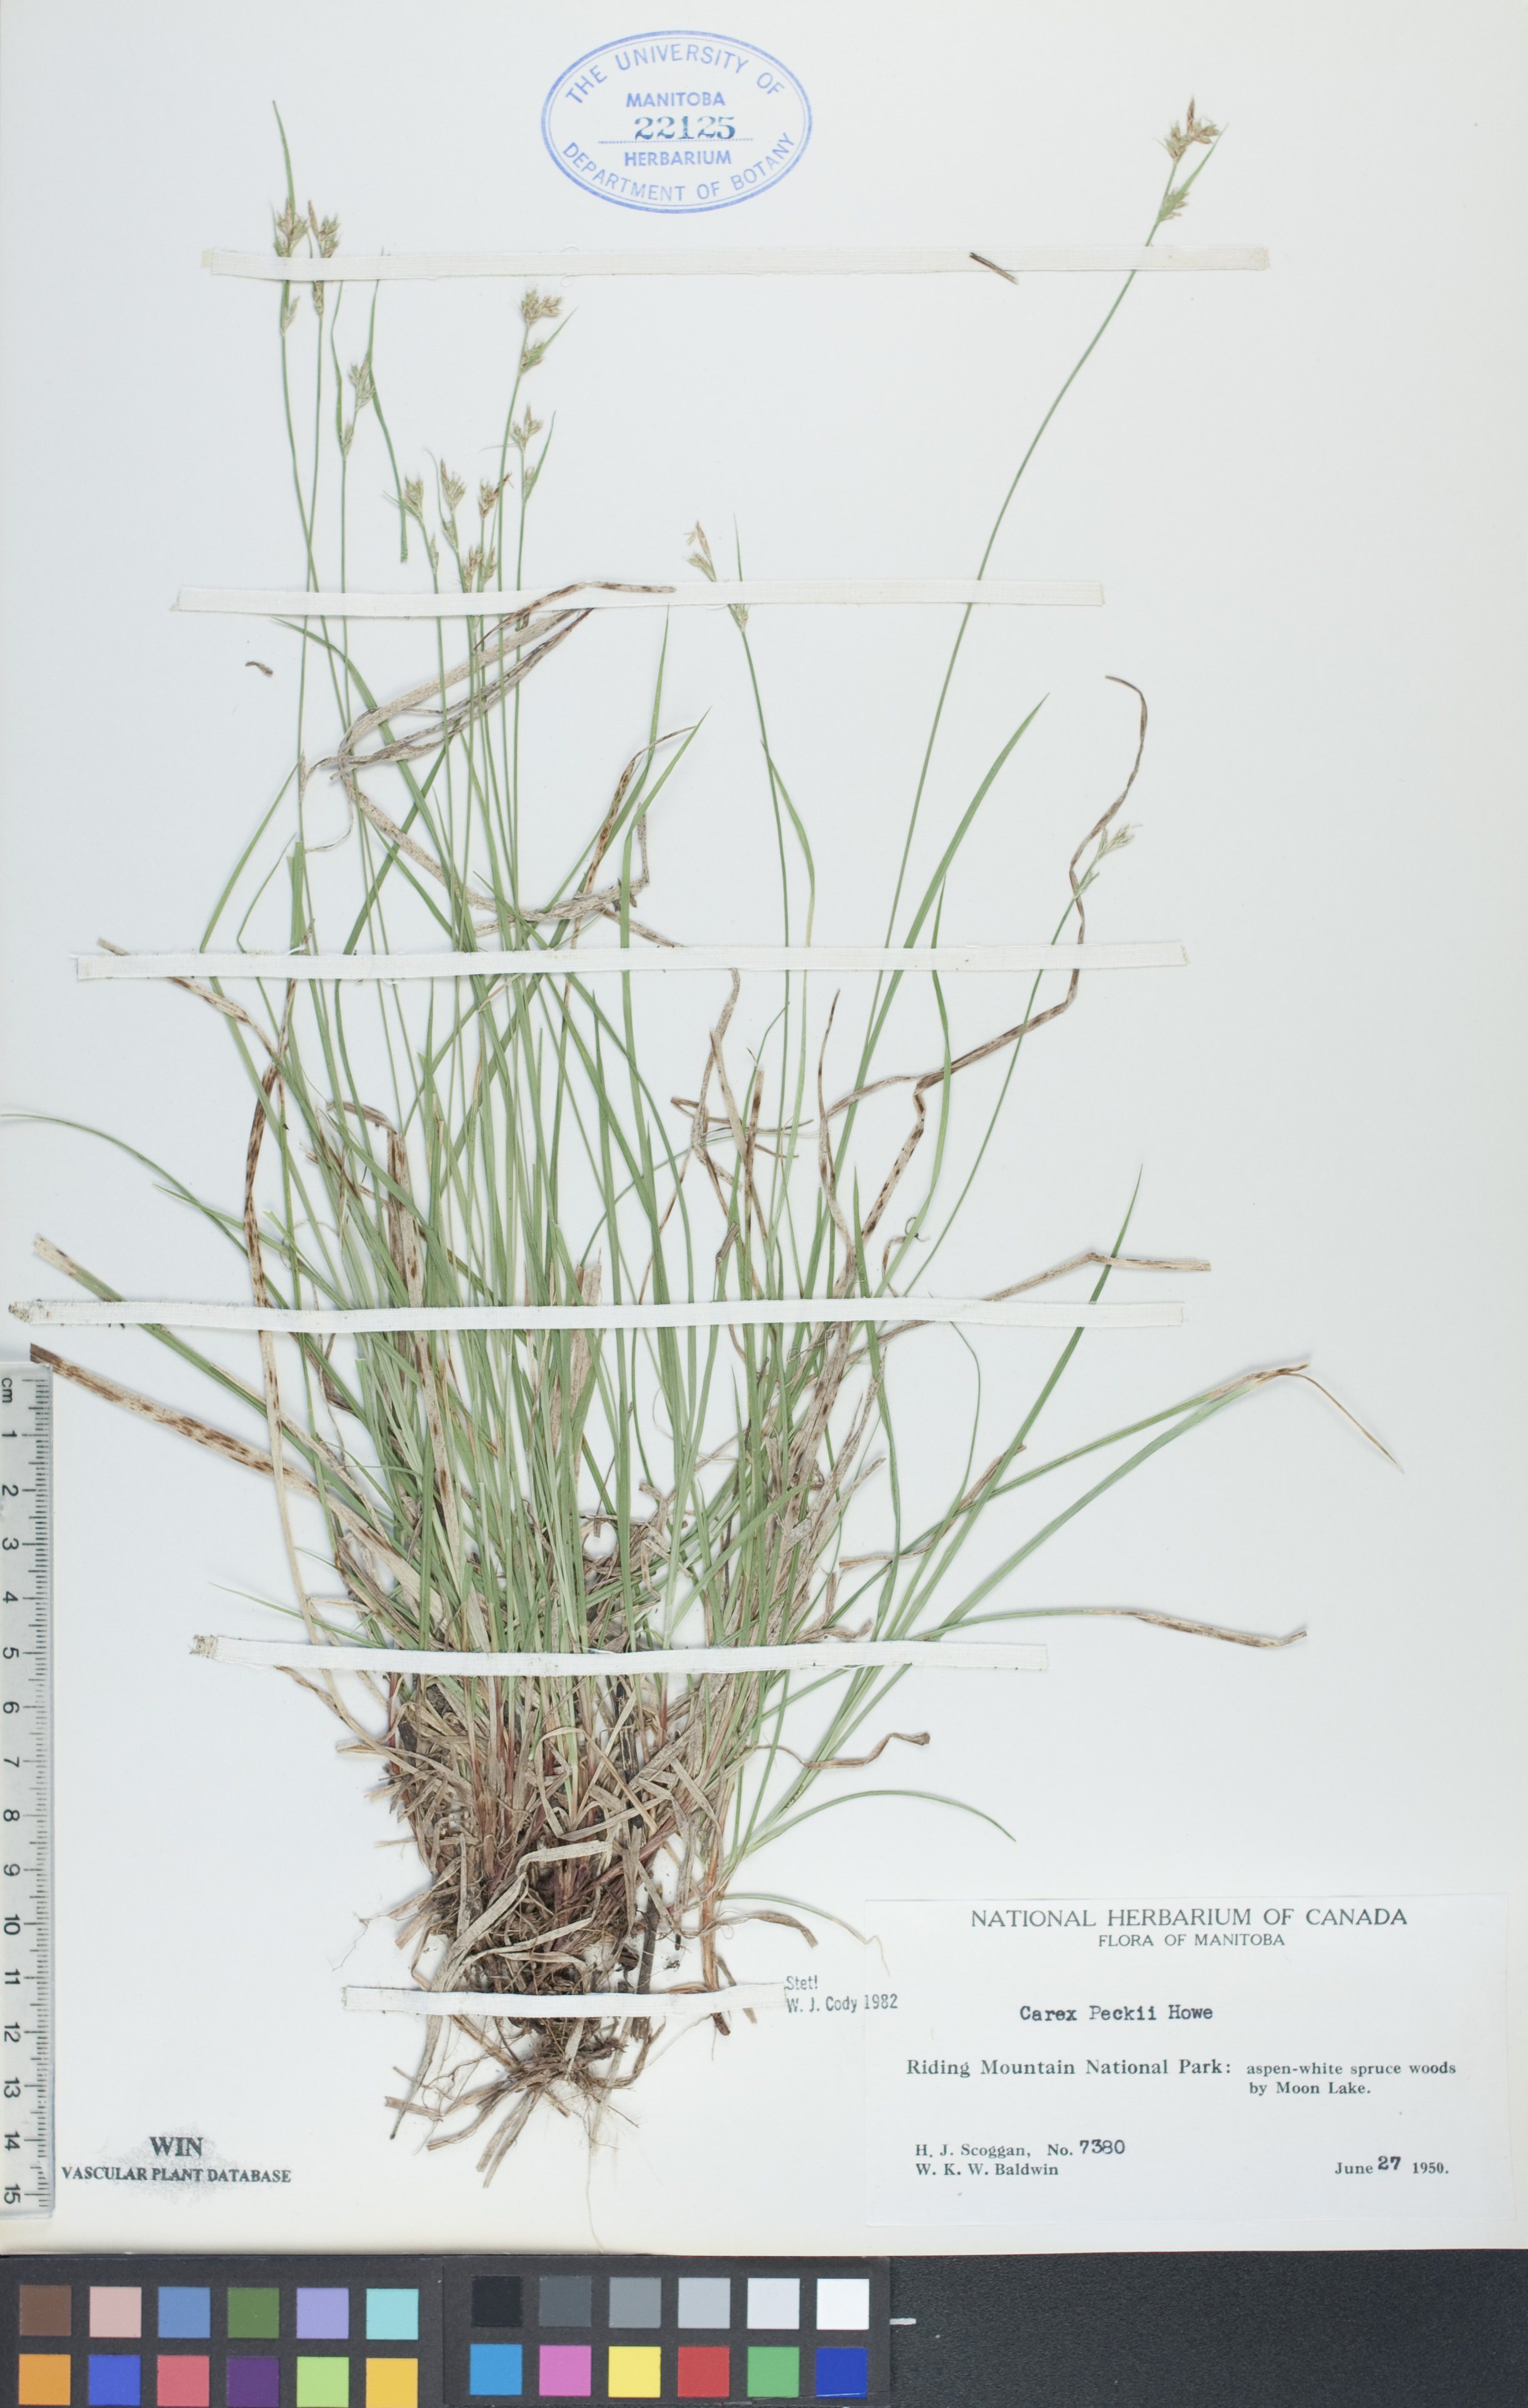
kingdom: Plantae
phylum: Tracheophyta
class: Liliopsida
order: Poales
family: Cyperaceae
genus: Carex
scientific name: Carex peckii
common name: Peck's oak sedge
